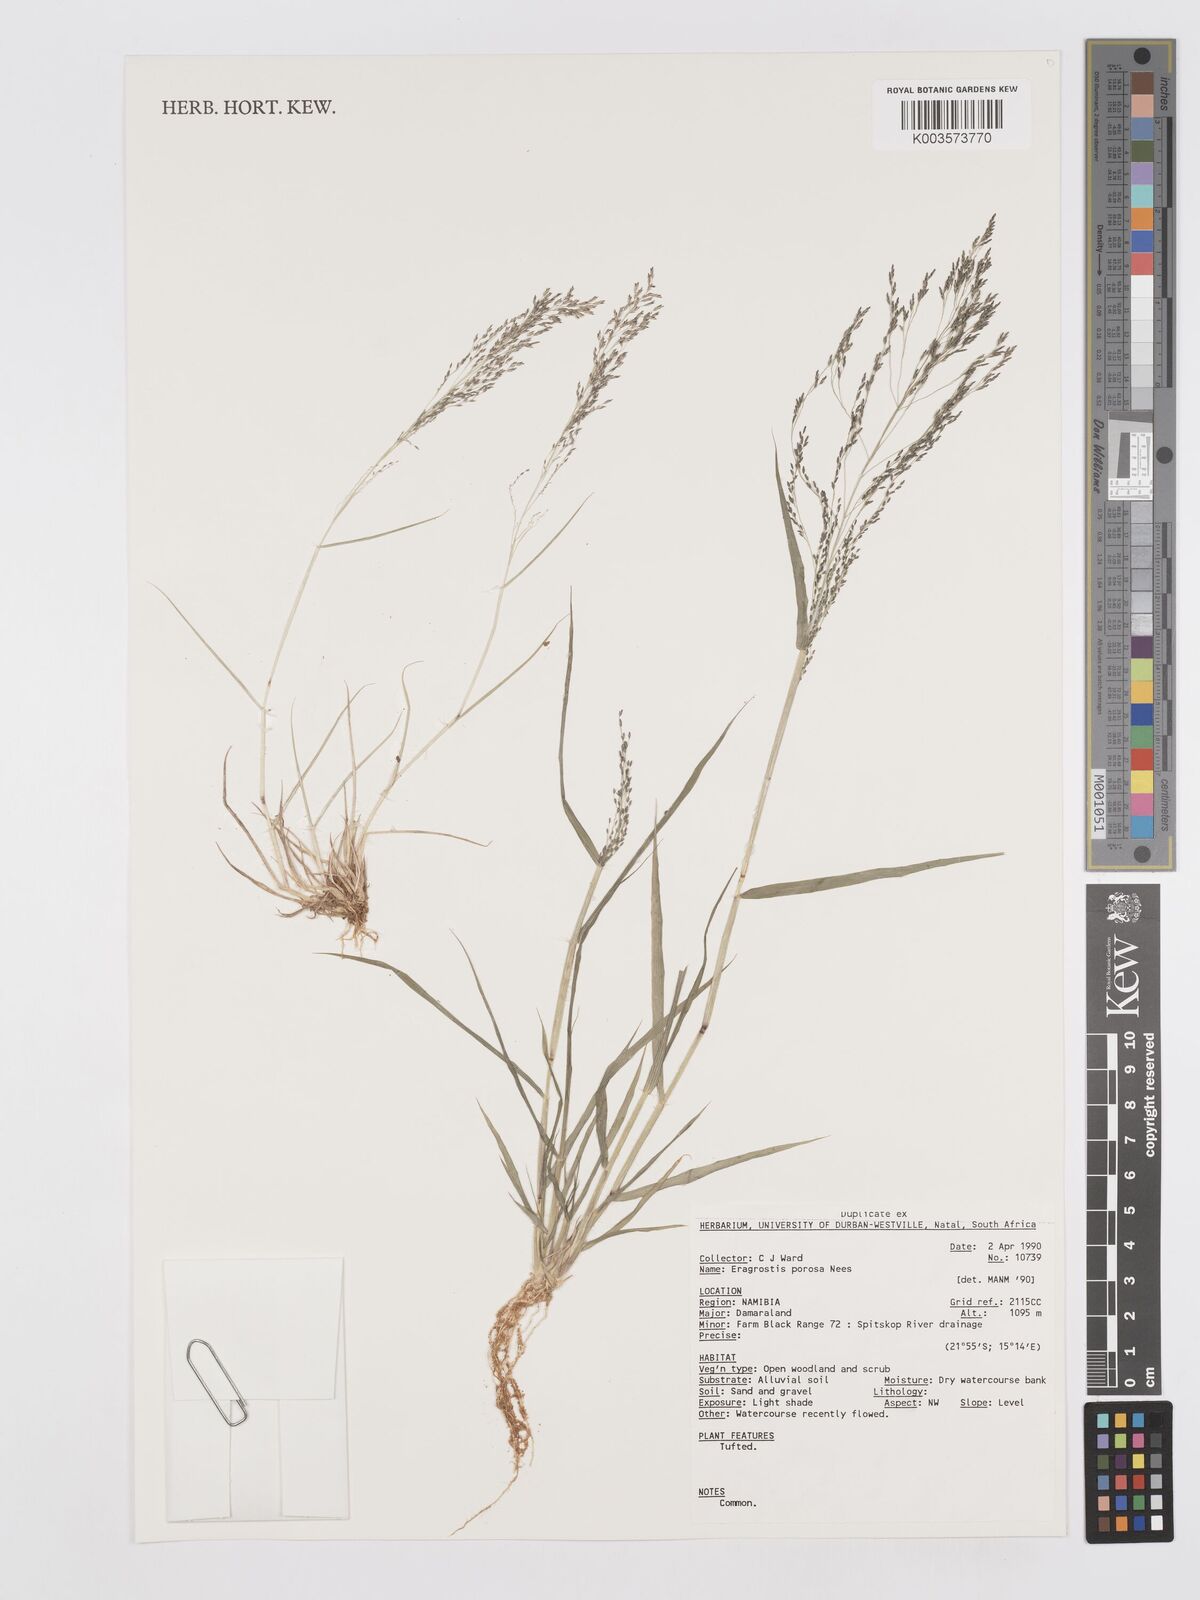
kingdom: Plantae
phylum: Tracheophyta
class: Liliopsida
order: Poales
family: Poaceae
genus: Eragrostis
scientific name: Eragrostis porosa
